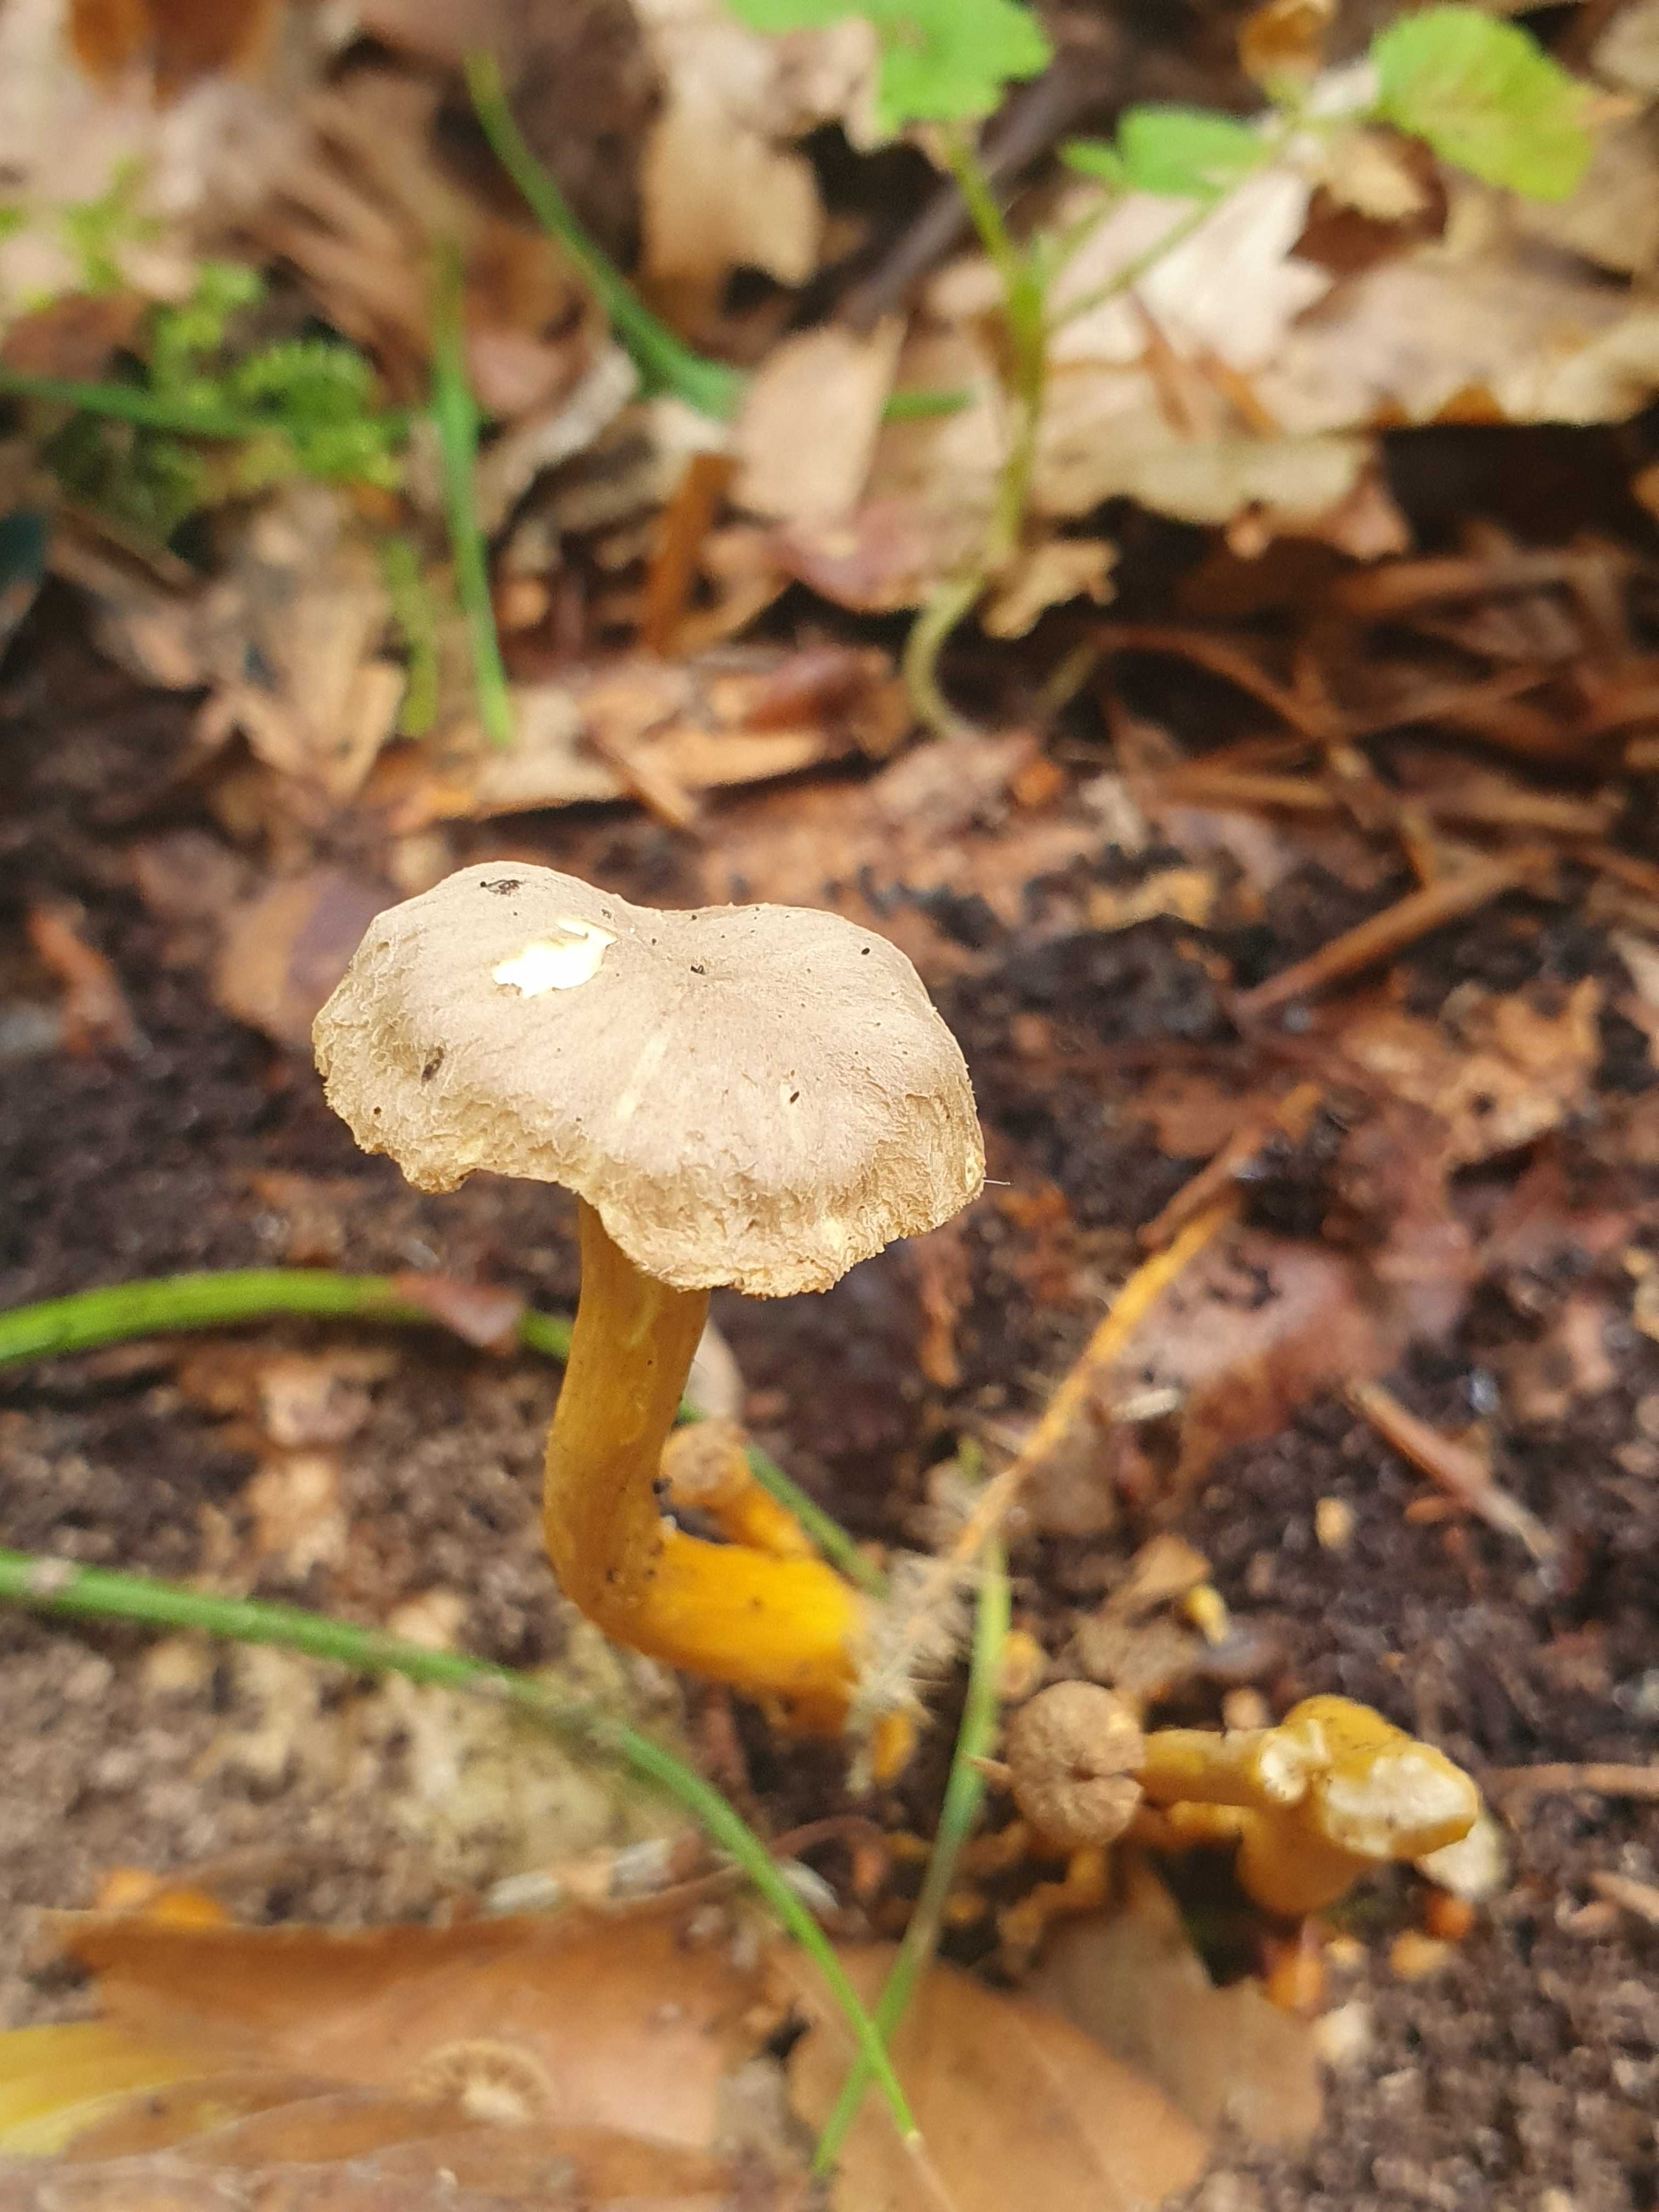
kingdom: Fungi
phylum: Basidiomycota
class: Agaricomycetes
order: Cantharellales
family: Hydnaceae
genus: Craterellus
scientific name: Craterellus tubaeformis
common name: tragt-kantarel
